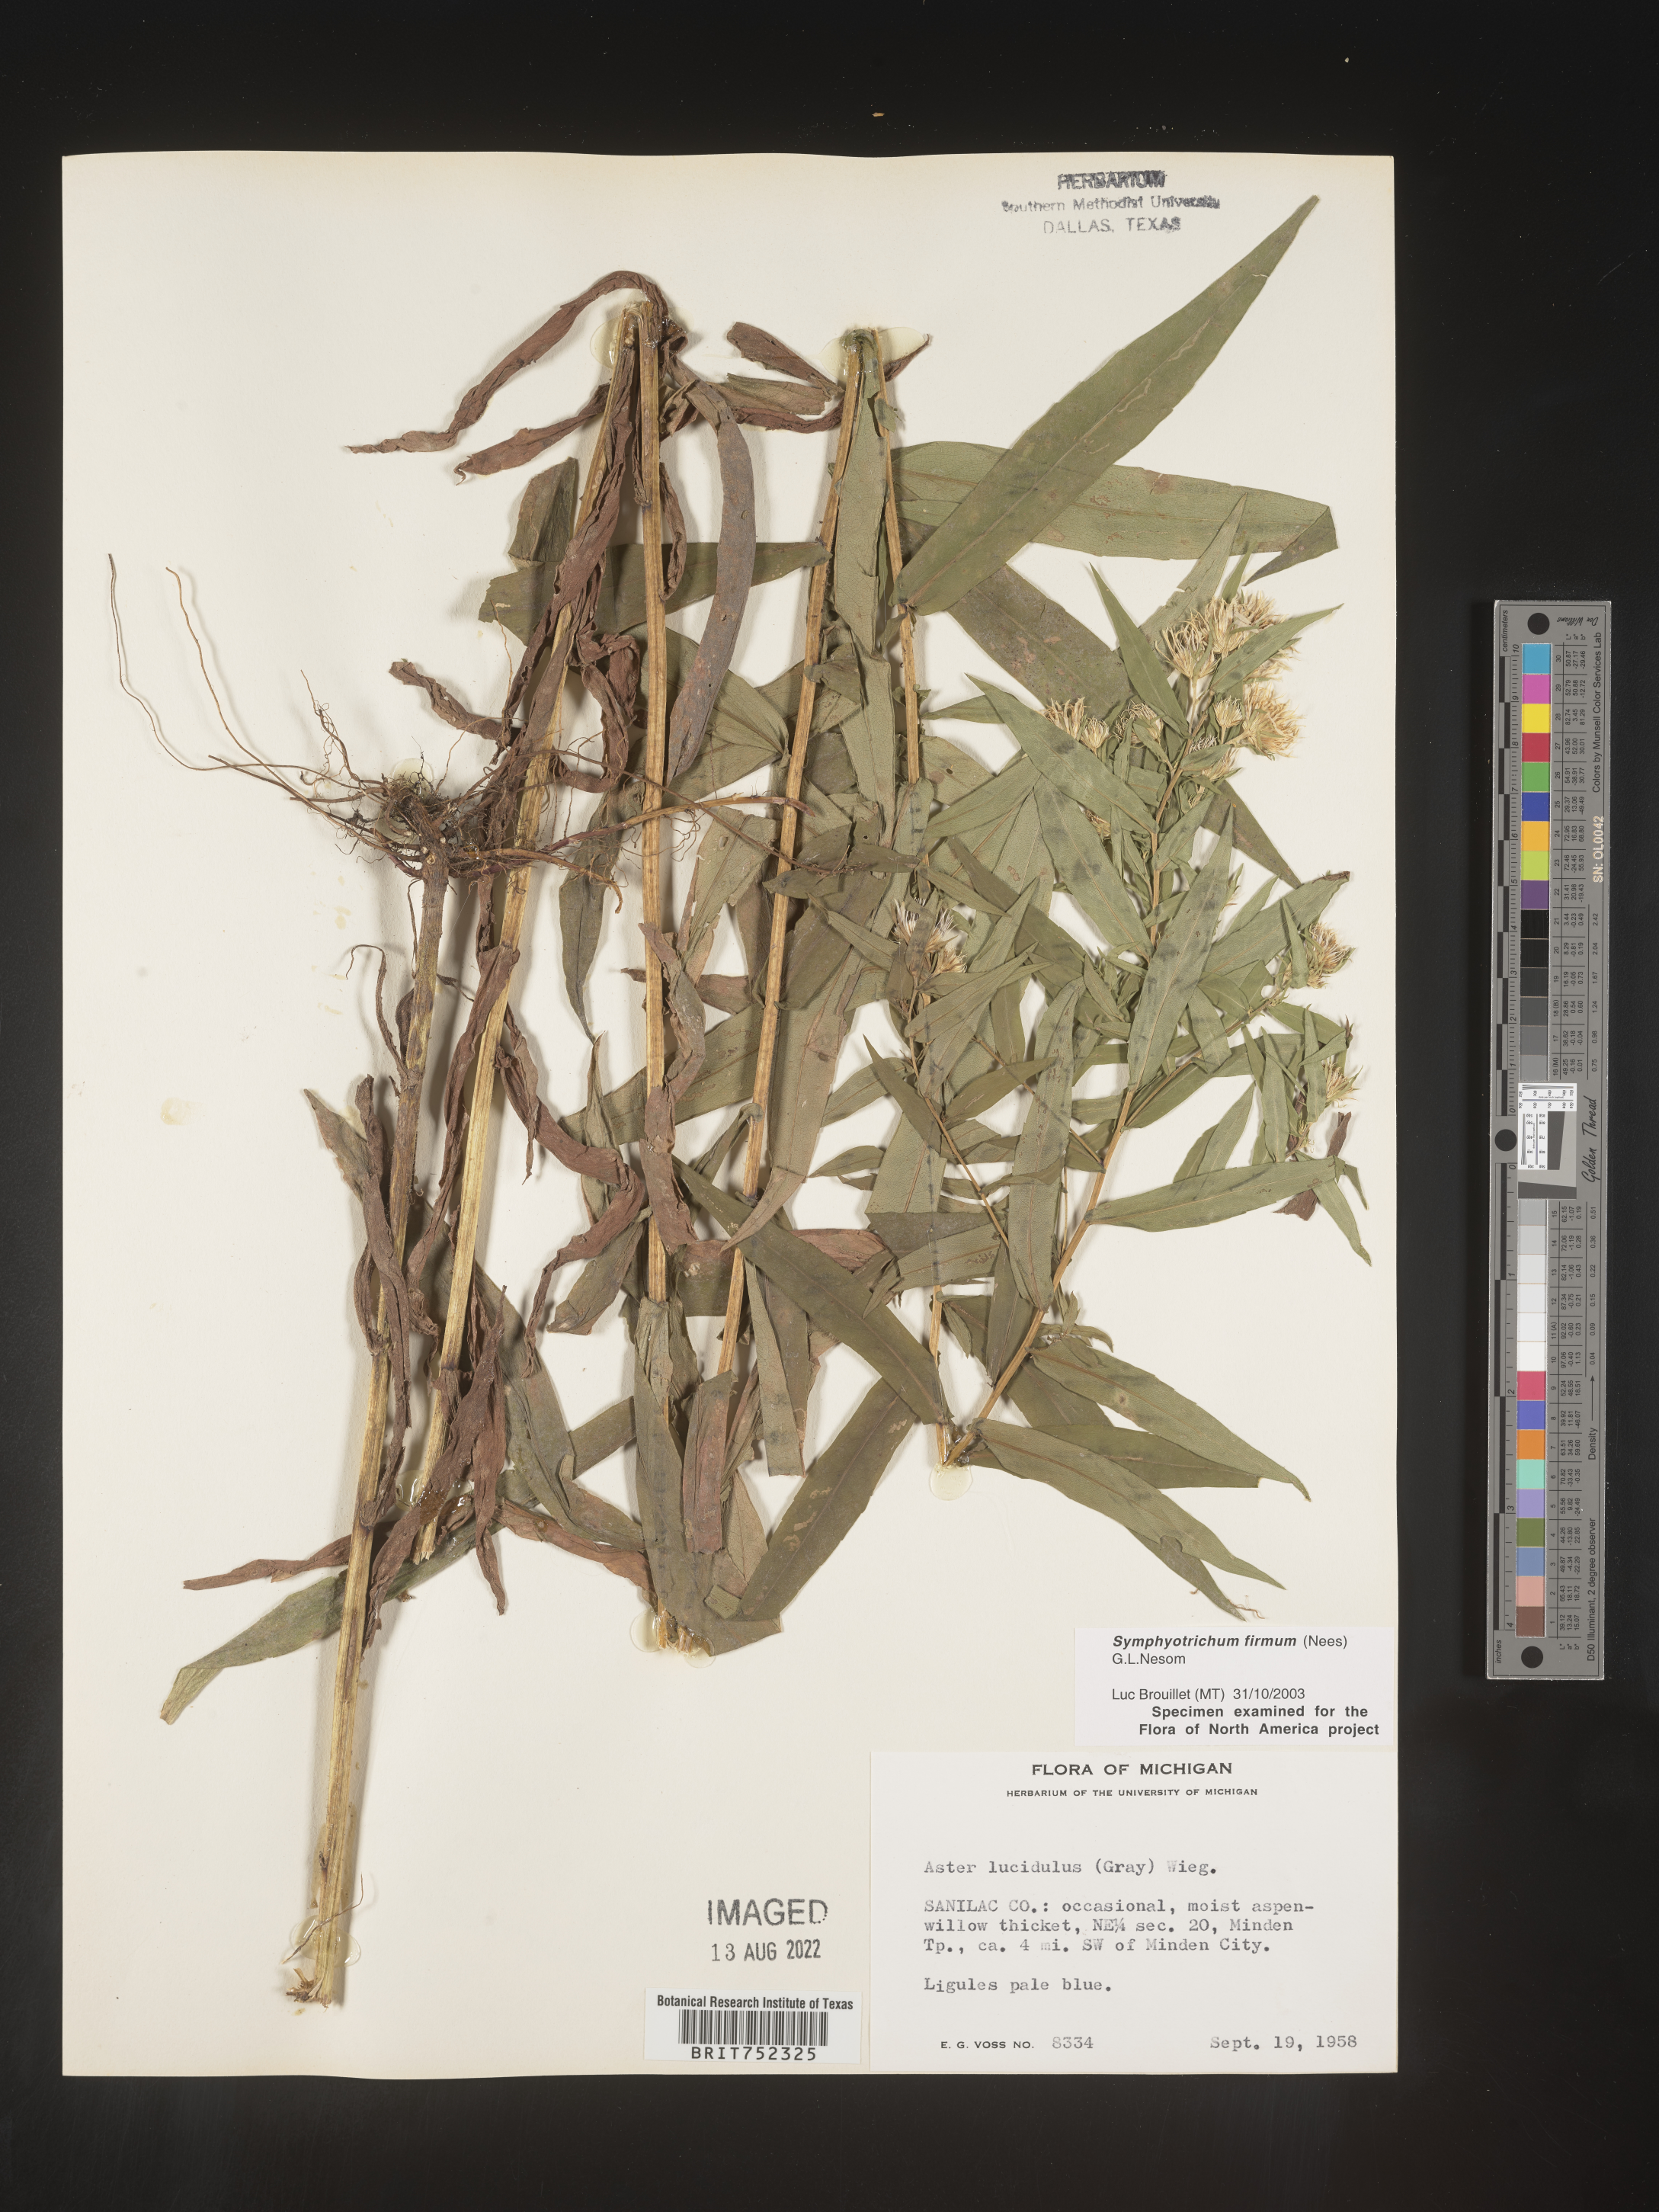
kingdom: Plantae
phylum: Tracheophyta
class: Magnoliopsida
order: Asterales
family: Asteraceae
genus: Symphyotrichum
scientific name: Symphyotrichum firmum
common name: Shining aster
